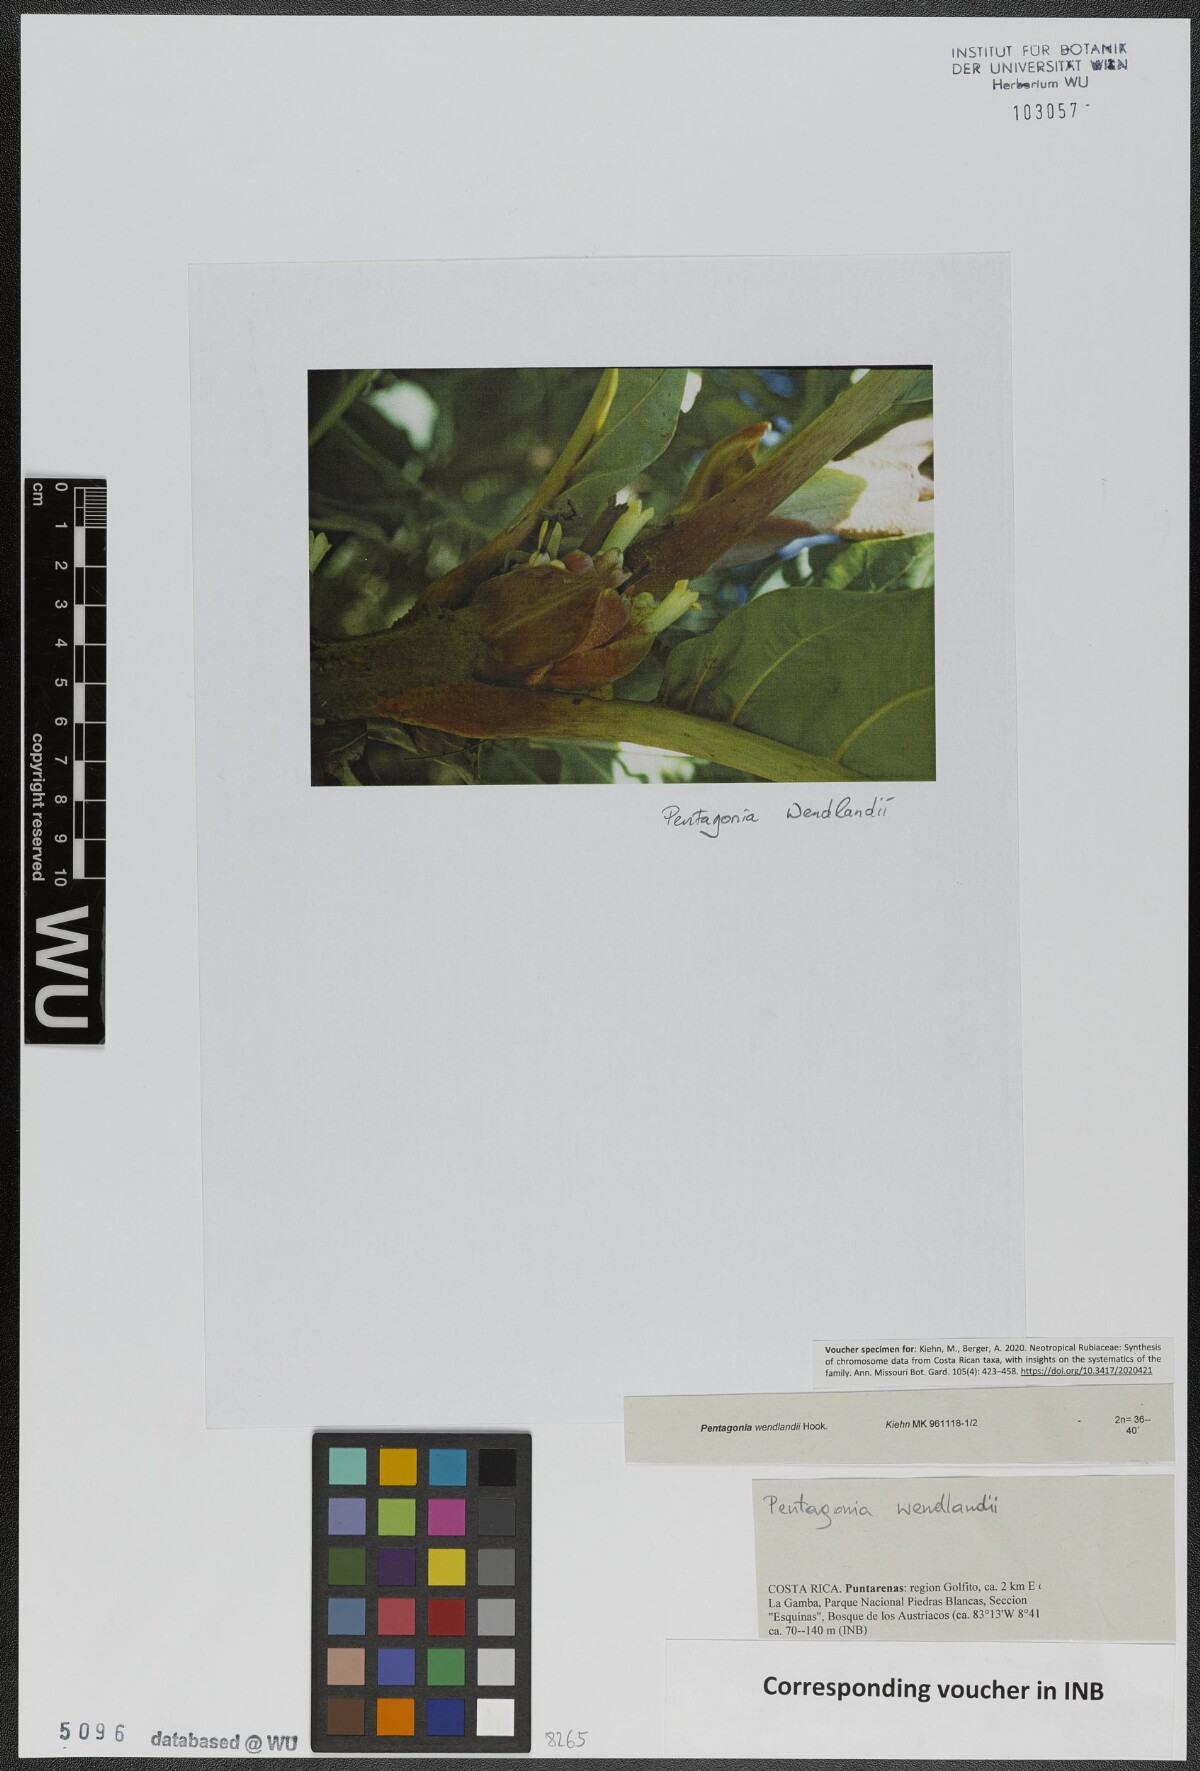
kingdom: Plantae
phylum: Tracheophyta
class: Magnoliopsida
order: Gentianales
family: Rubiaceae
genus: Pentagonia
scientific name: Pentagonia wendlandii
